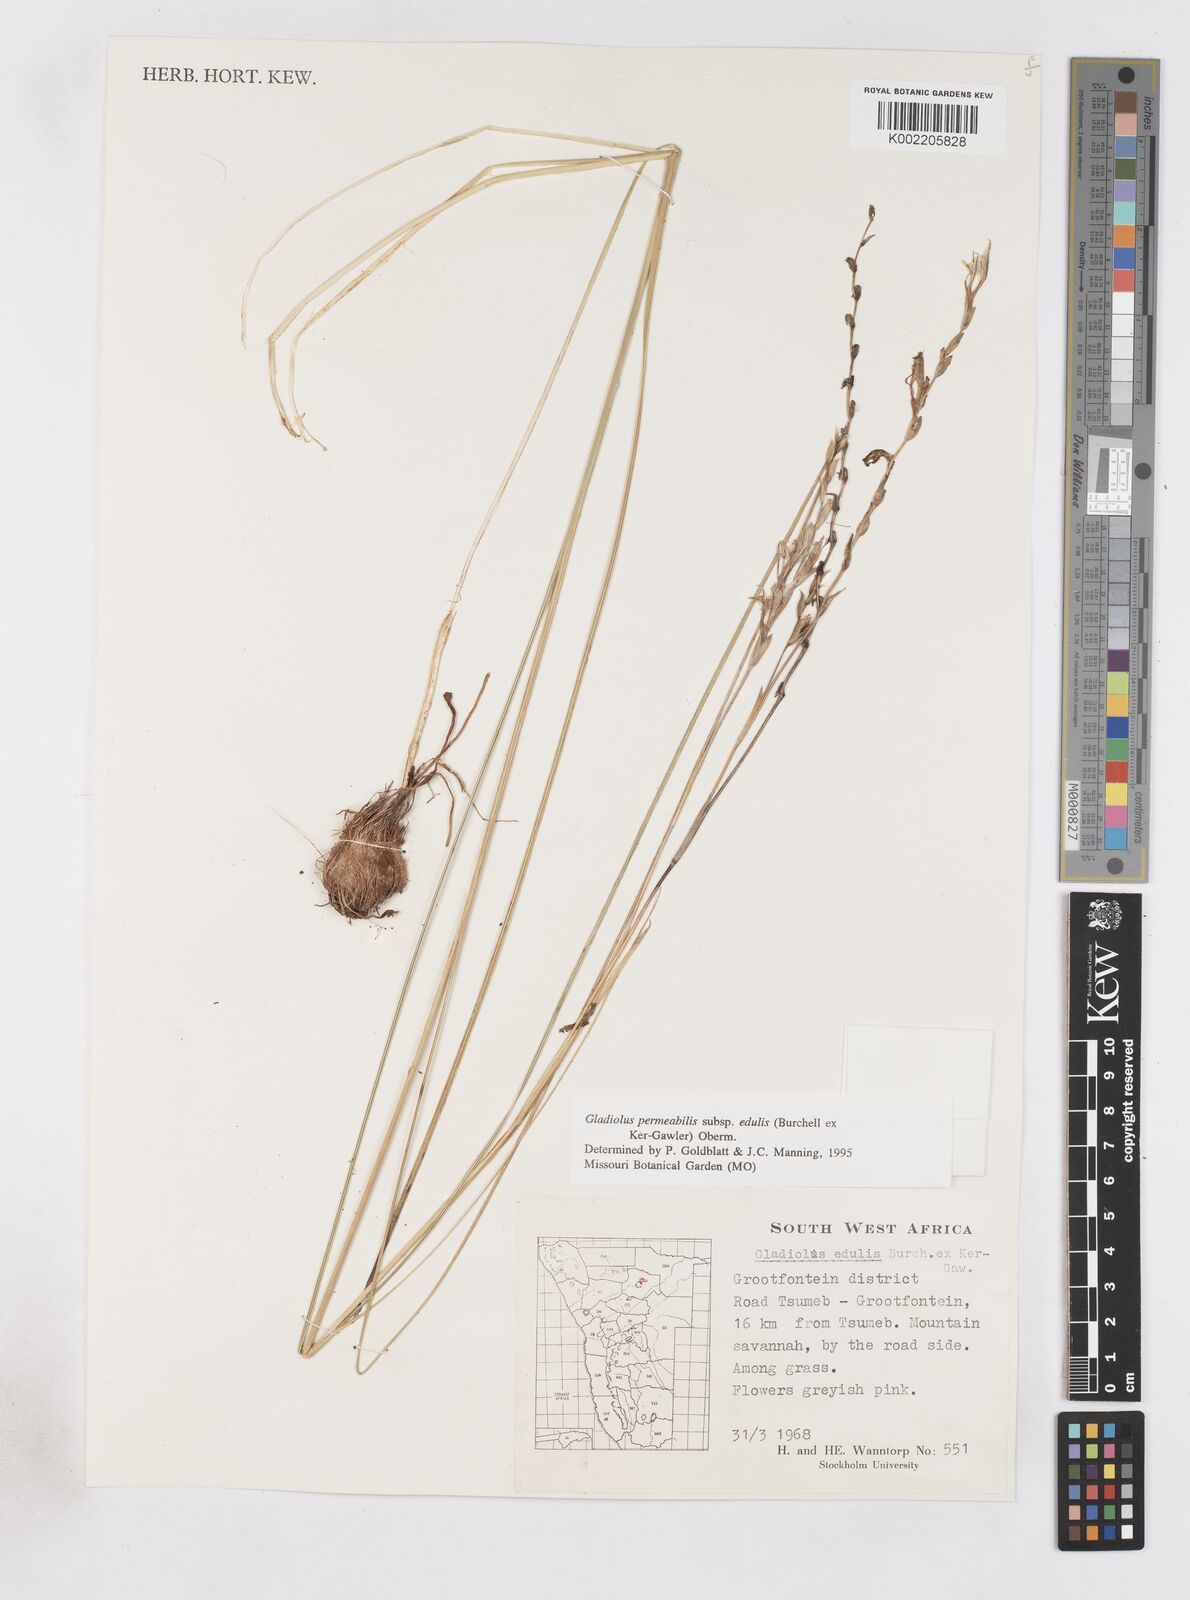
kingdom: Plantae
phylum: Tracheophyta
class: Liliopsida
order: Asparagales
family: Iridaceae
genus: Gladiolus
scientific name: Gladiolus permeabilis
